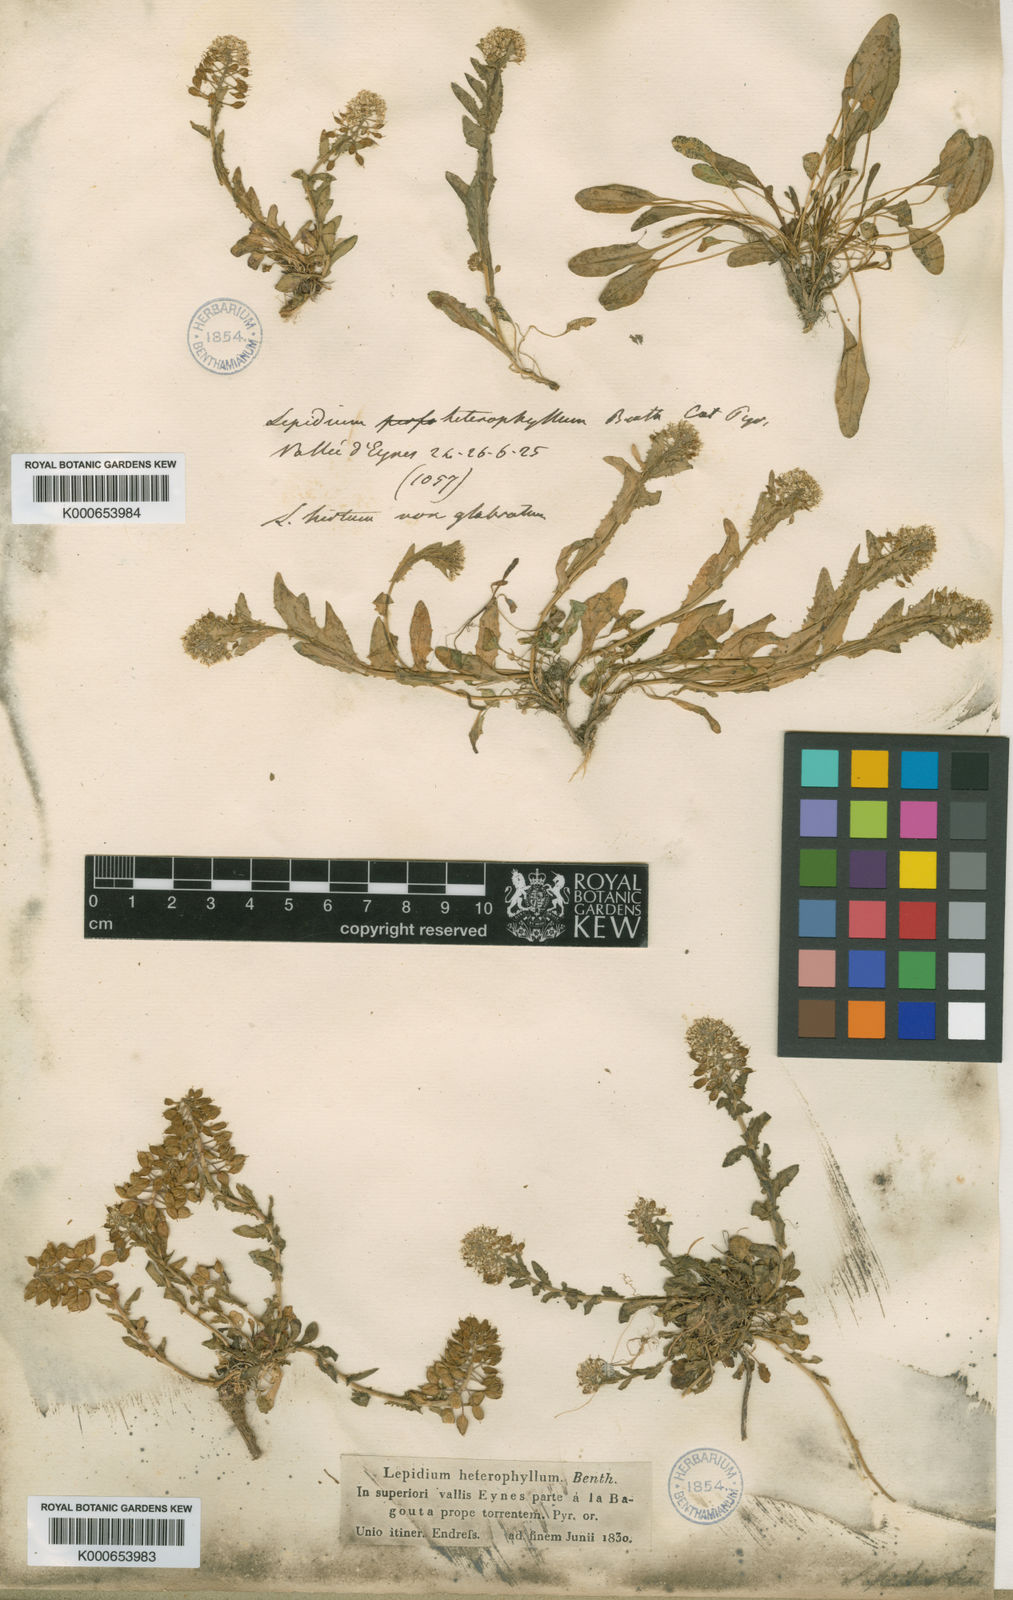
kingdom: Plantae
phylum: Tracheophyta
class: Magnoliopsida
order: Brassicales
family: Brassicaceae
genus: Lepidium
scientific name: Lepidium heterophyllum
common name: Smith's pepperwort
